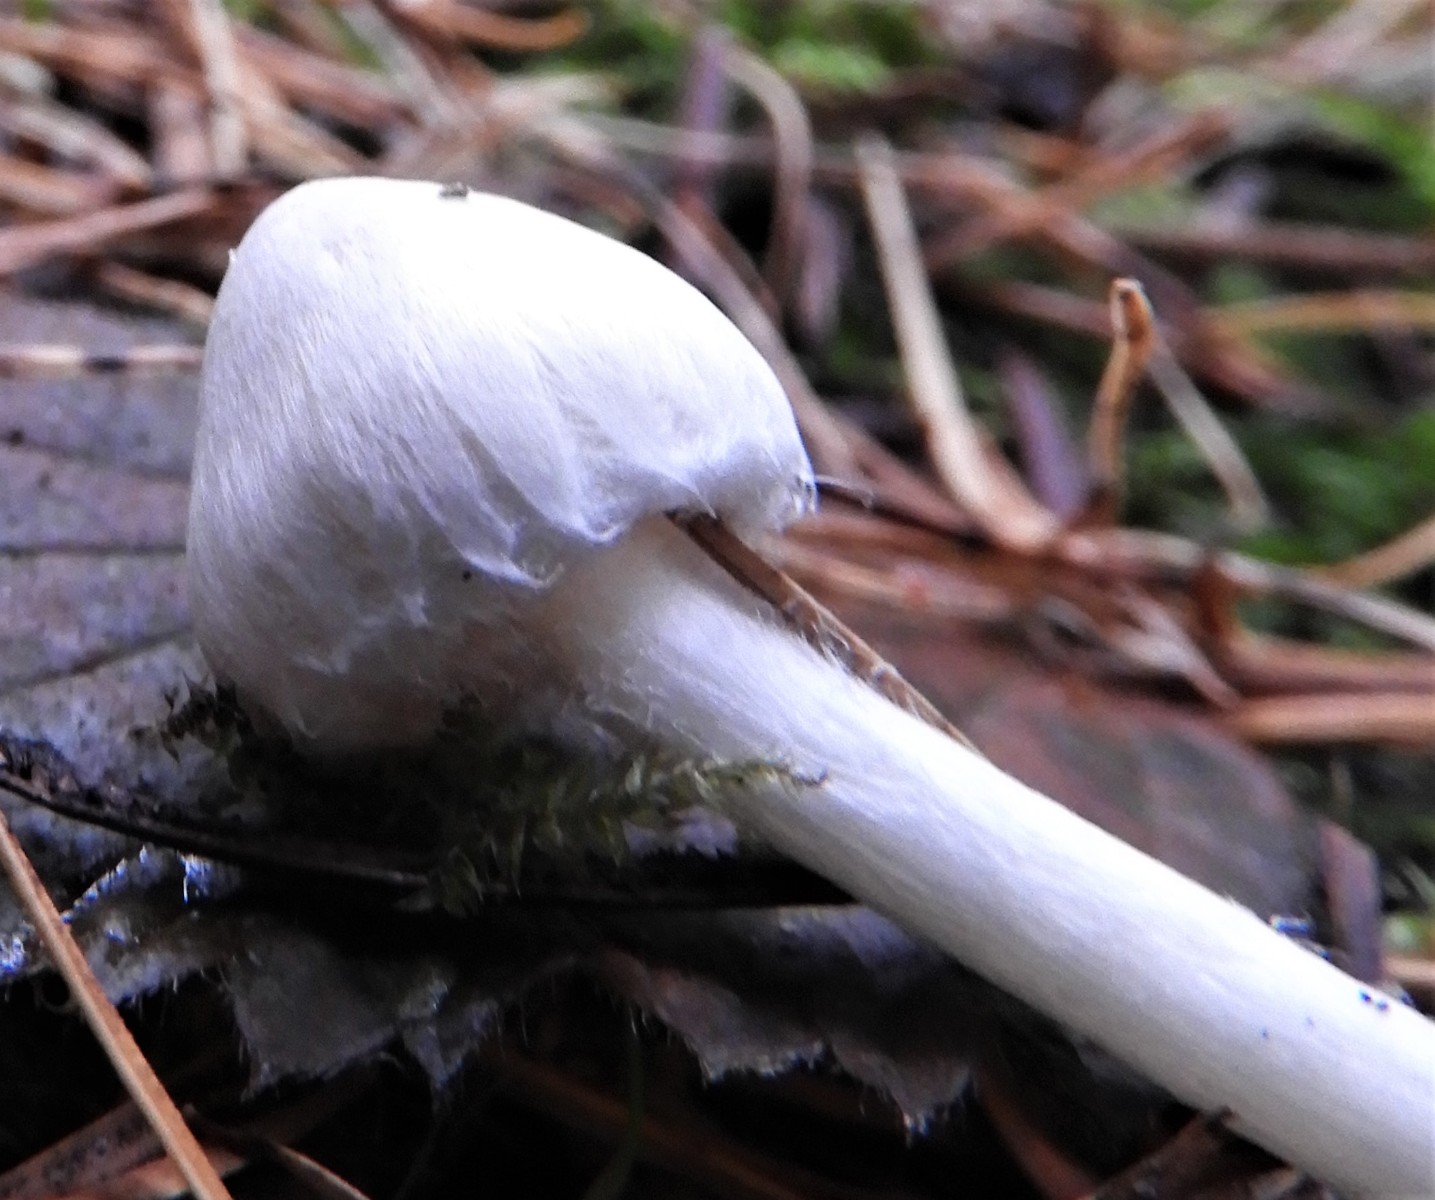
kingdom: Fungi
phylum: Basidiomycota
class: Agaricomycetes
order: Agaricales
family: Inocybaceae
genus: Inocybe
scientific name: Inocybe
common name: almindelig trævlhat
